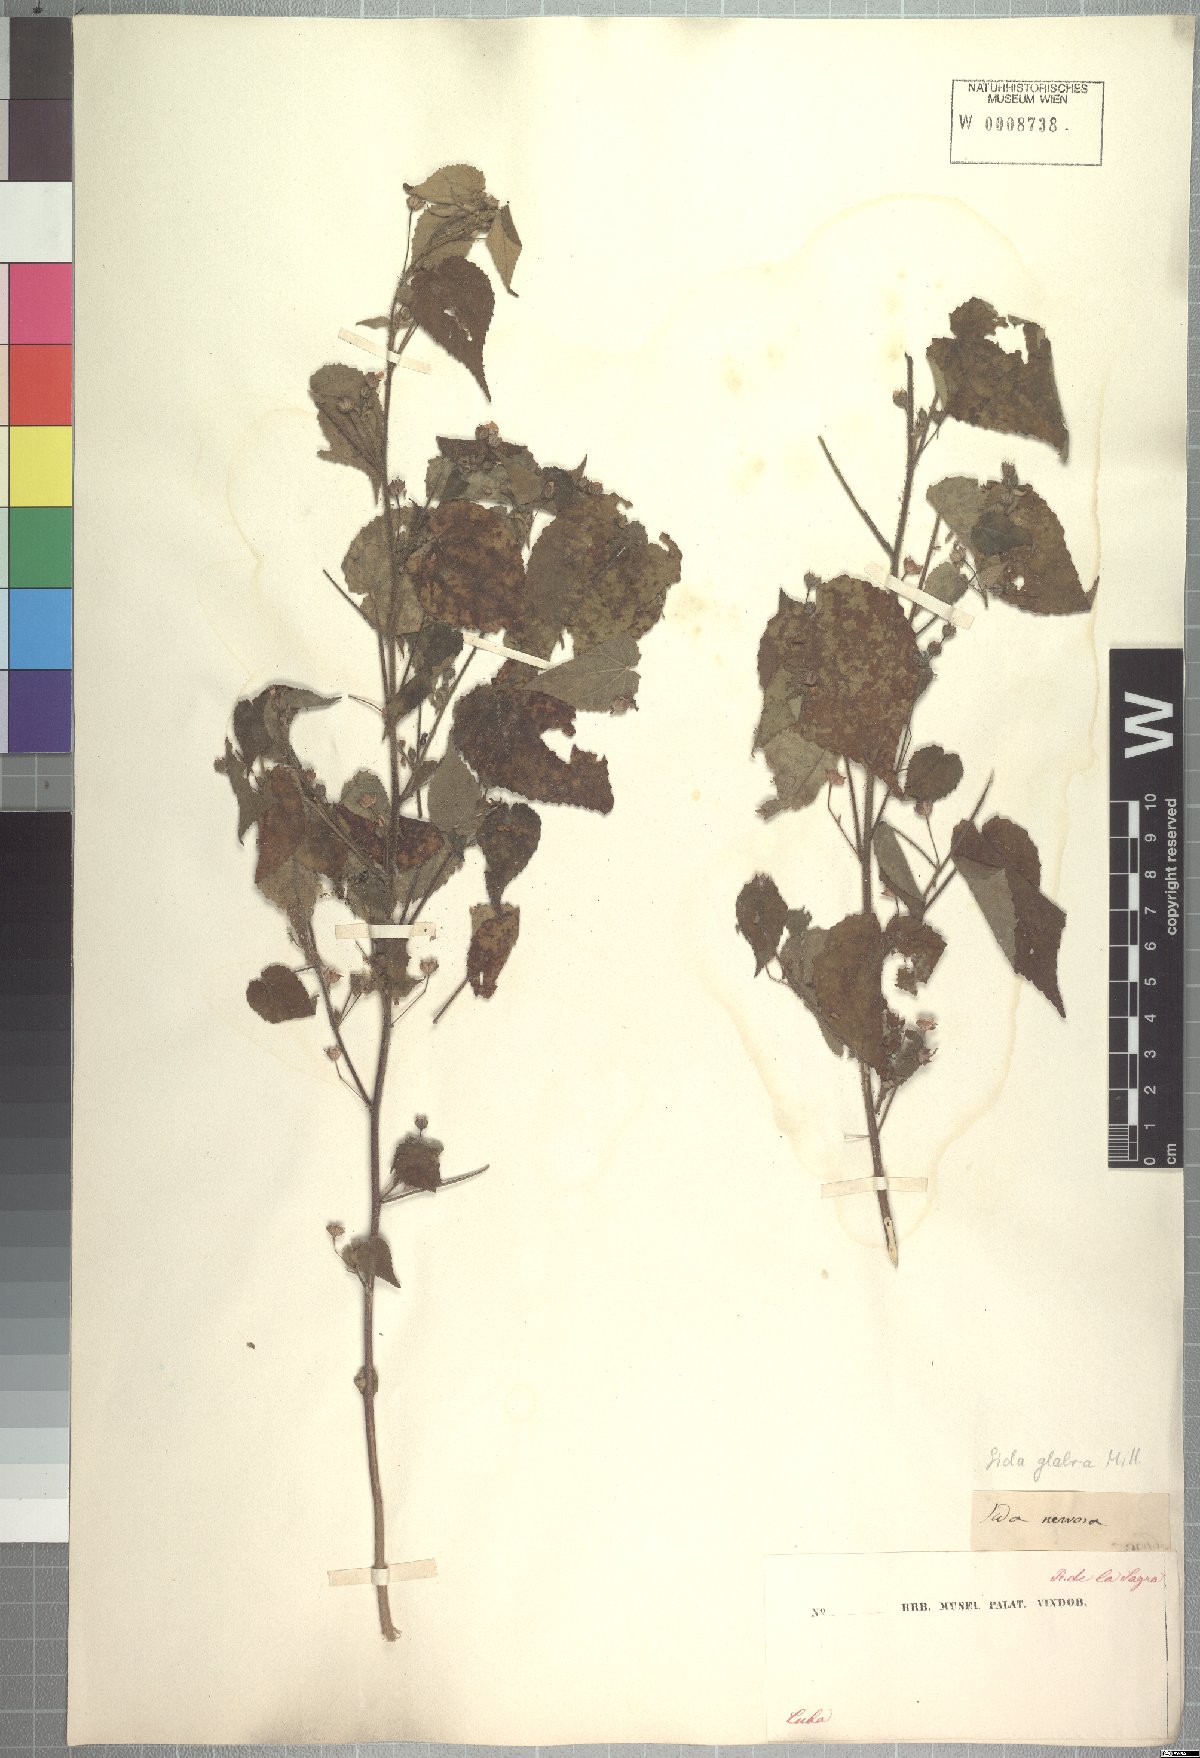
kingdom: Plantae
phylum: Tracheophyta
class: Magnoliopsida
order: Malvales
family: Malvaceae
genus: Sida
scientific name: Sida glabra
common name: Smooth fanpetals
